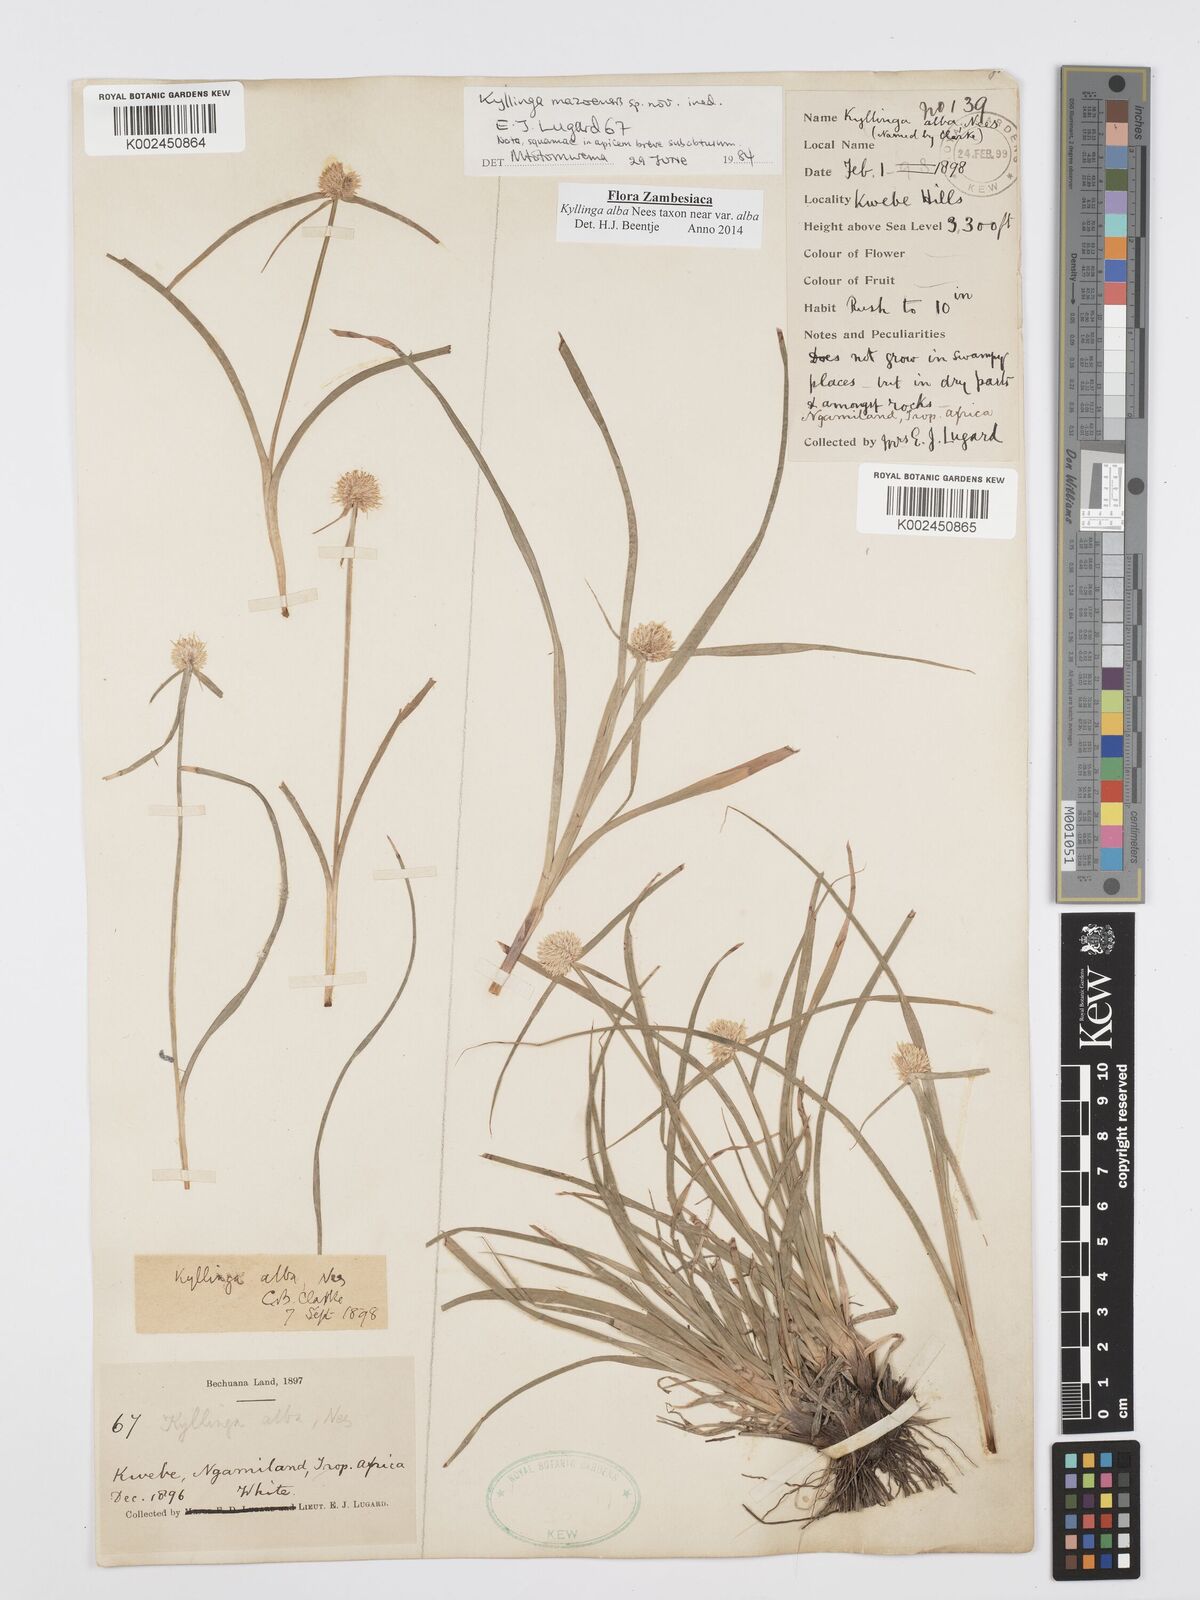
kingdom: Plantae
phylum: Tracheophyta
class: Liliopsida
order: Poales
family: Cyperaceae
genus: Cyperus
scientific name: Cyperus
